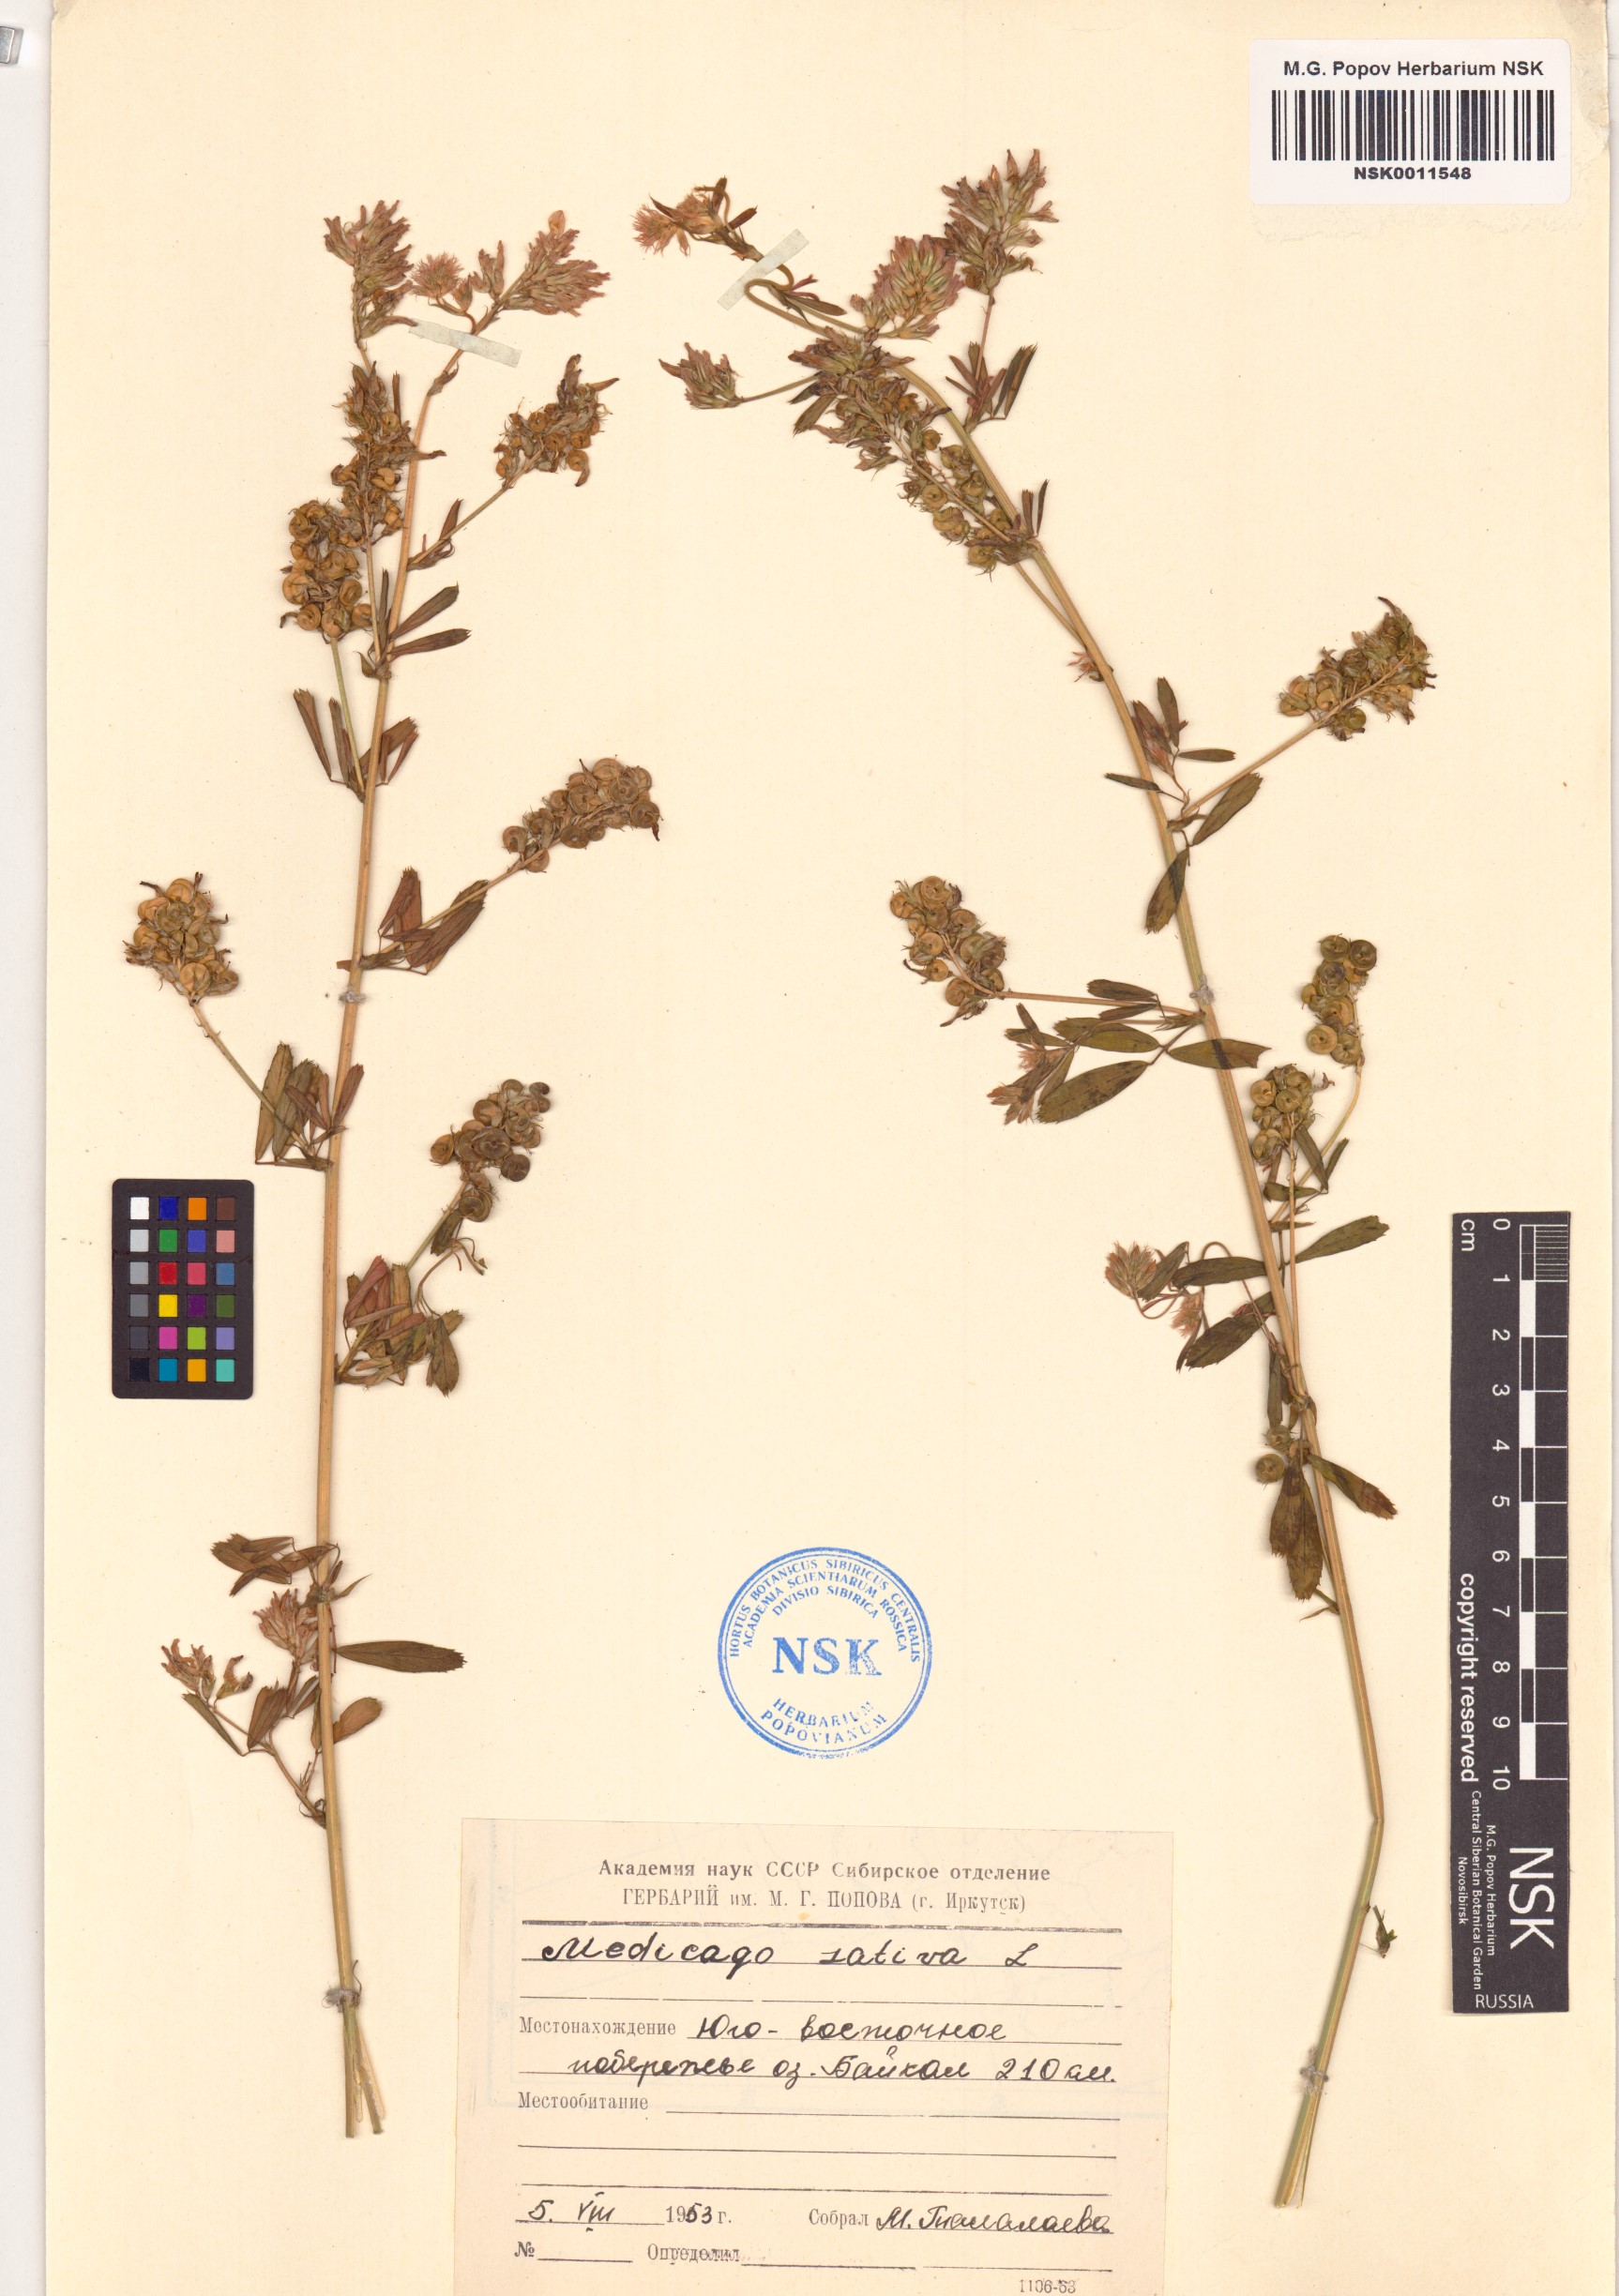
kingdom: Plantae
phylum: Tracheophyta
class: Magnoliopsida
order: Fabales
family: Fabaceae
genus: Medicago
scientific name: Medicago sativa
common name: Alfalfa
